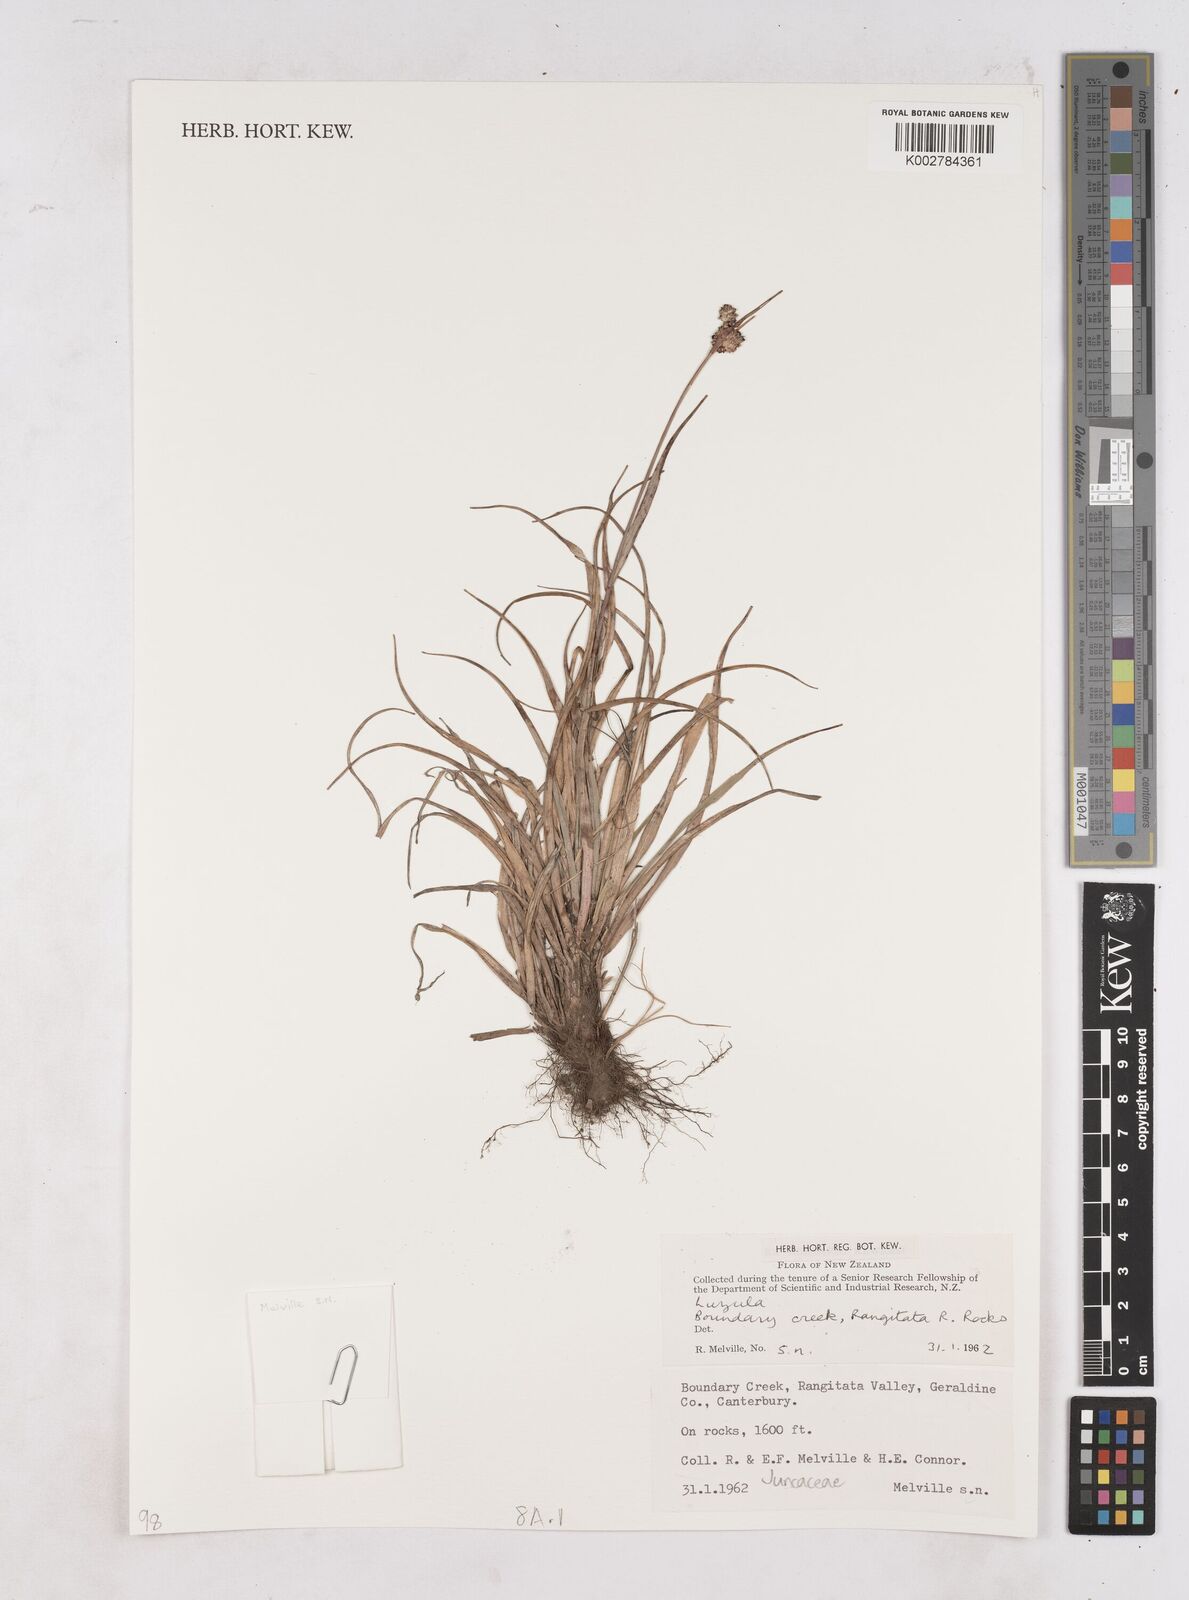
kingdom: Plantae
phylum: Tracheophyta
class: Liliopsida
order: Poales
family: Juncaceae
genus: Luzula
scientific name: Luzula
